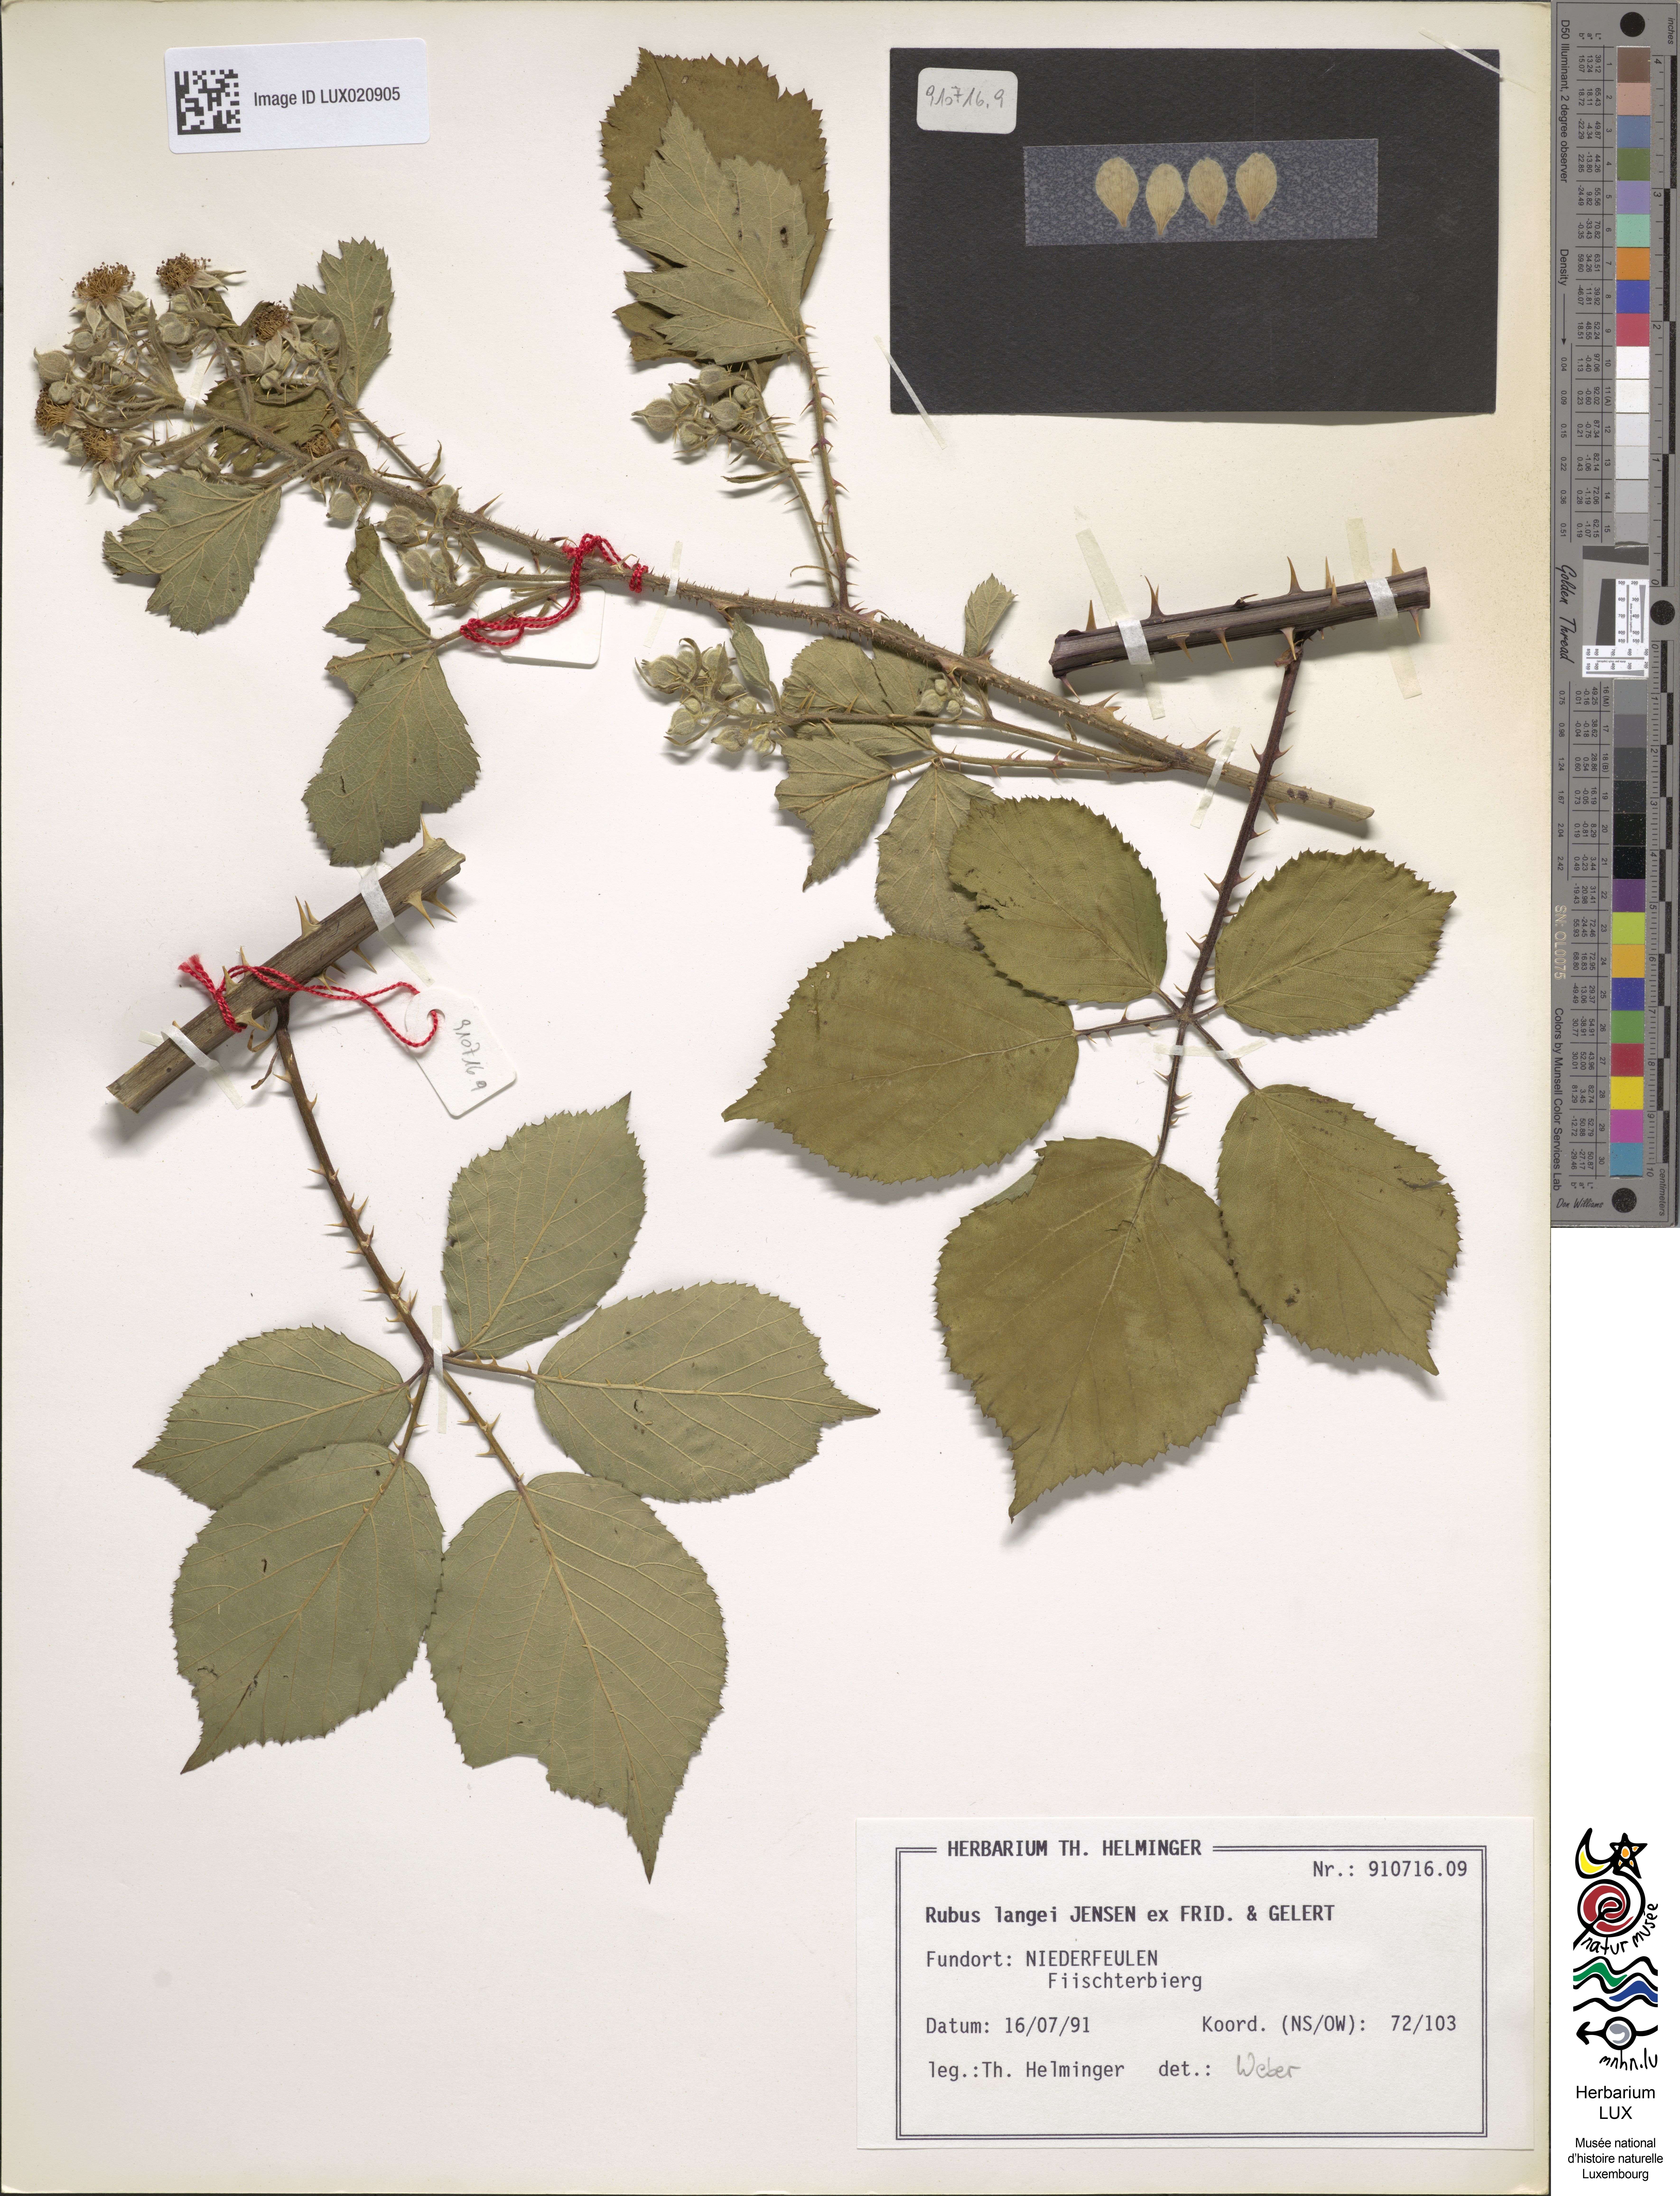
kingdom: Plantae
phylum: Tracheophyta
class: Magnoliopsida
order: Rosales
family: Rosaceae
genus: Rubus
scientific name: Rubus langei
